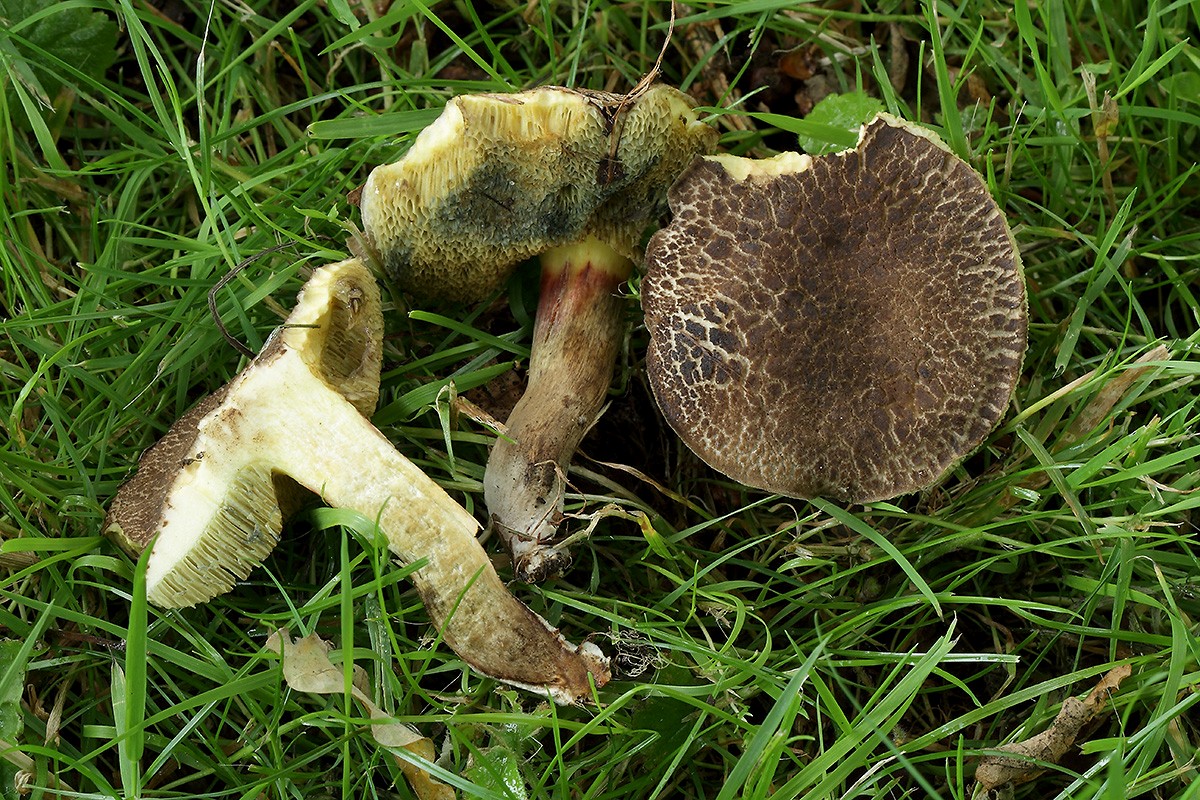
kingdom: Fungi
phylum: Basidiomycota
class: Agaricomycetes
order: Boletales
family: Boletaceae
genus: Xerocomellus
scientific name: Xerocomellus porosporus
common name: hvidsprukken rørhat
